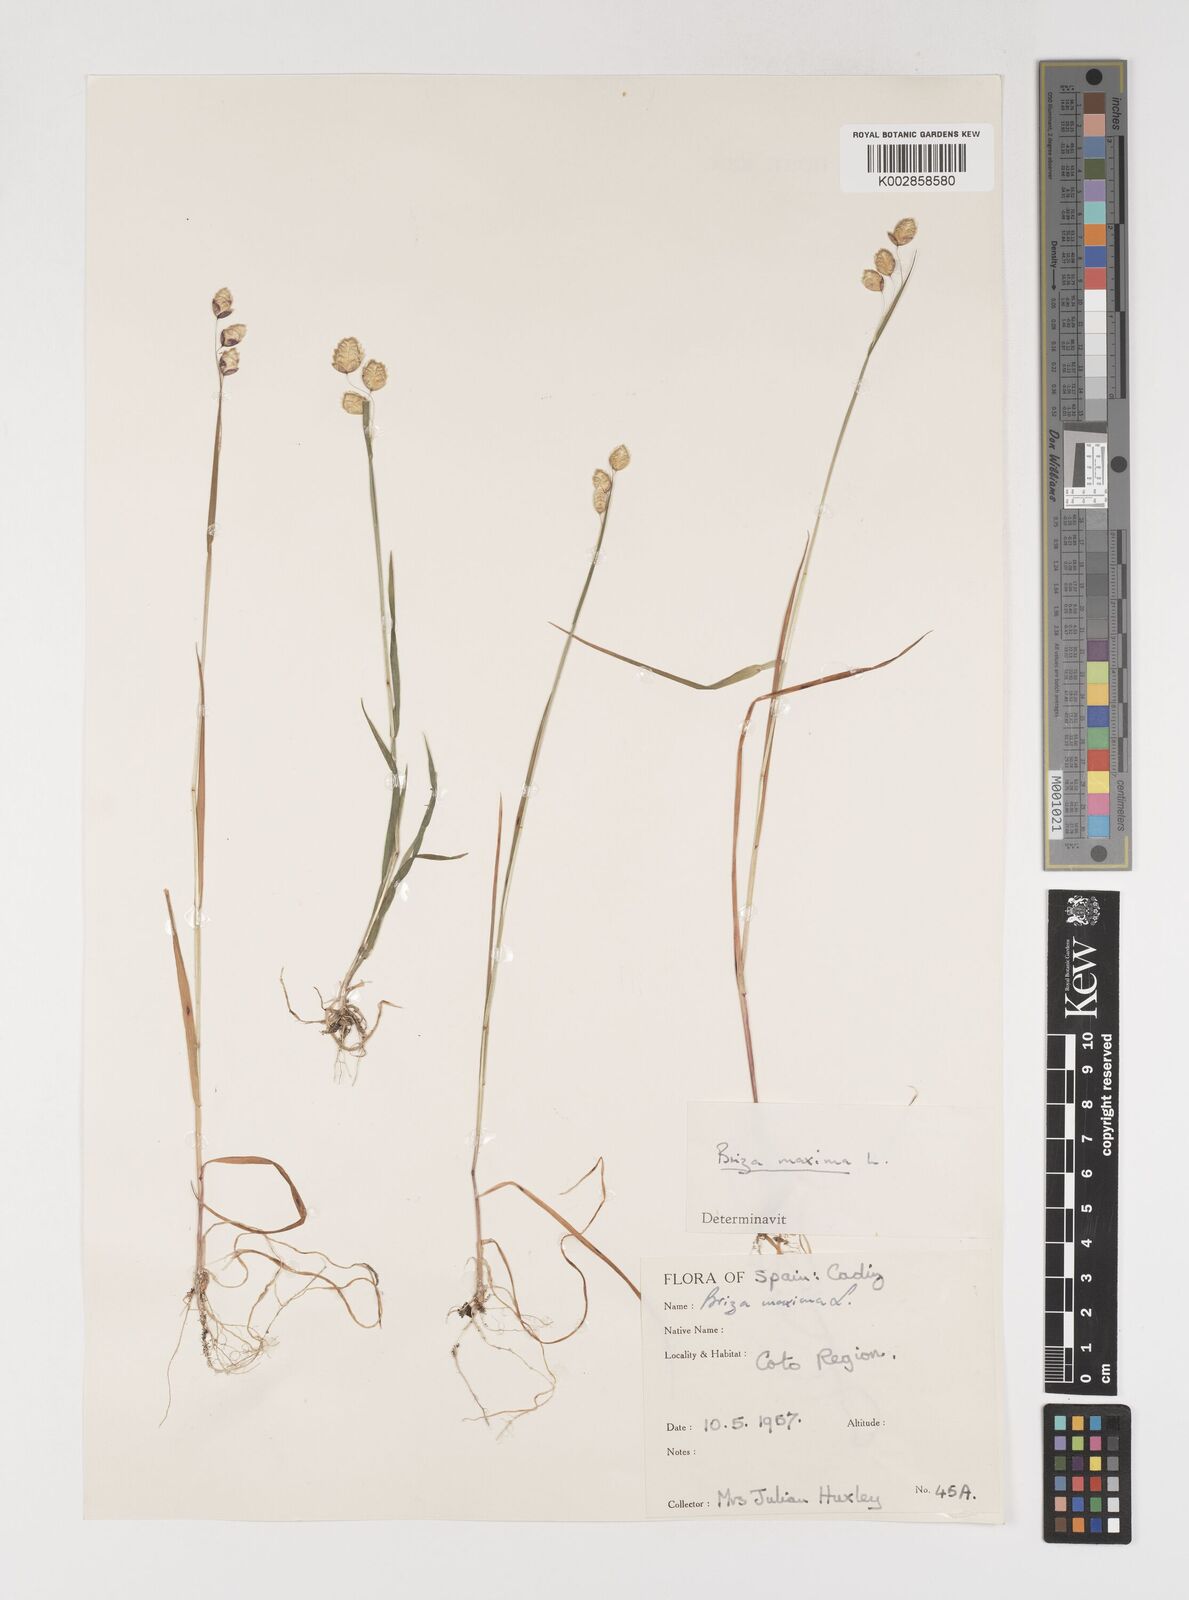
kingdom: Plantae
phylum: Tracheophyta
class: Liliopsida
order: Poales
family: Poaceae
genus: Briza
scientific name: Briza maxima
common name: Big quakinggrass
